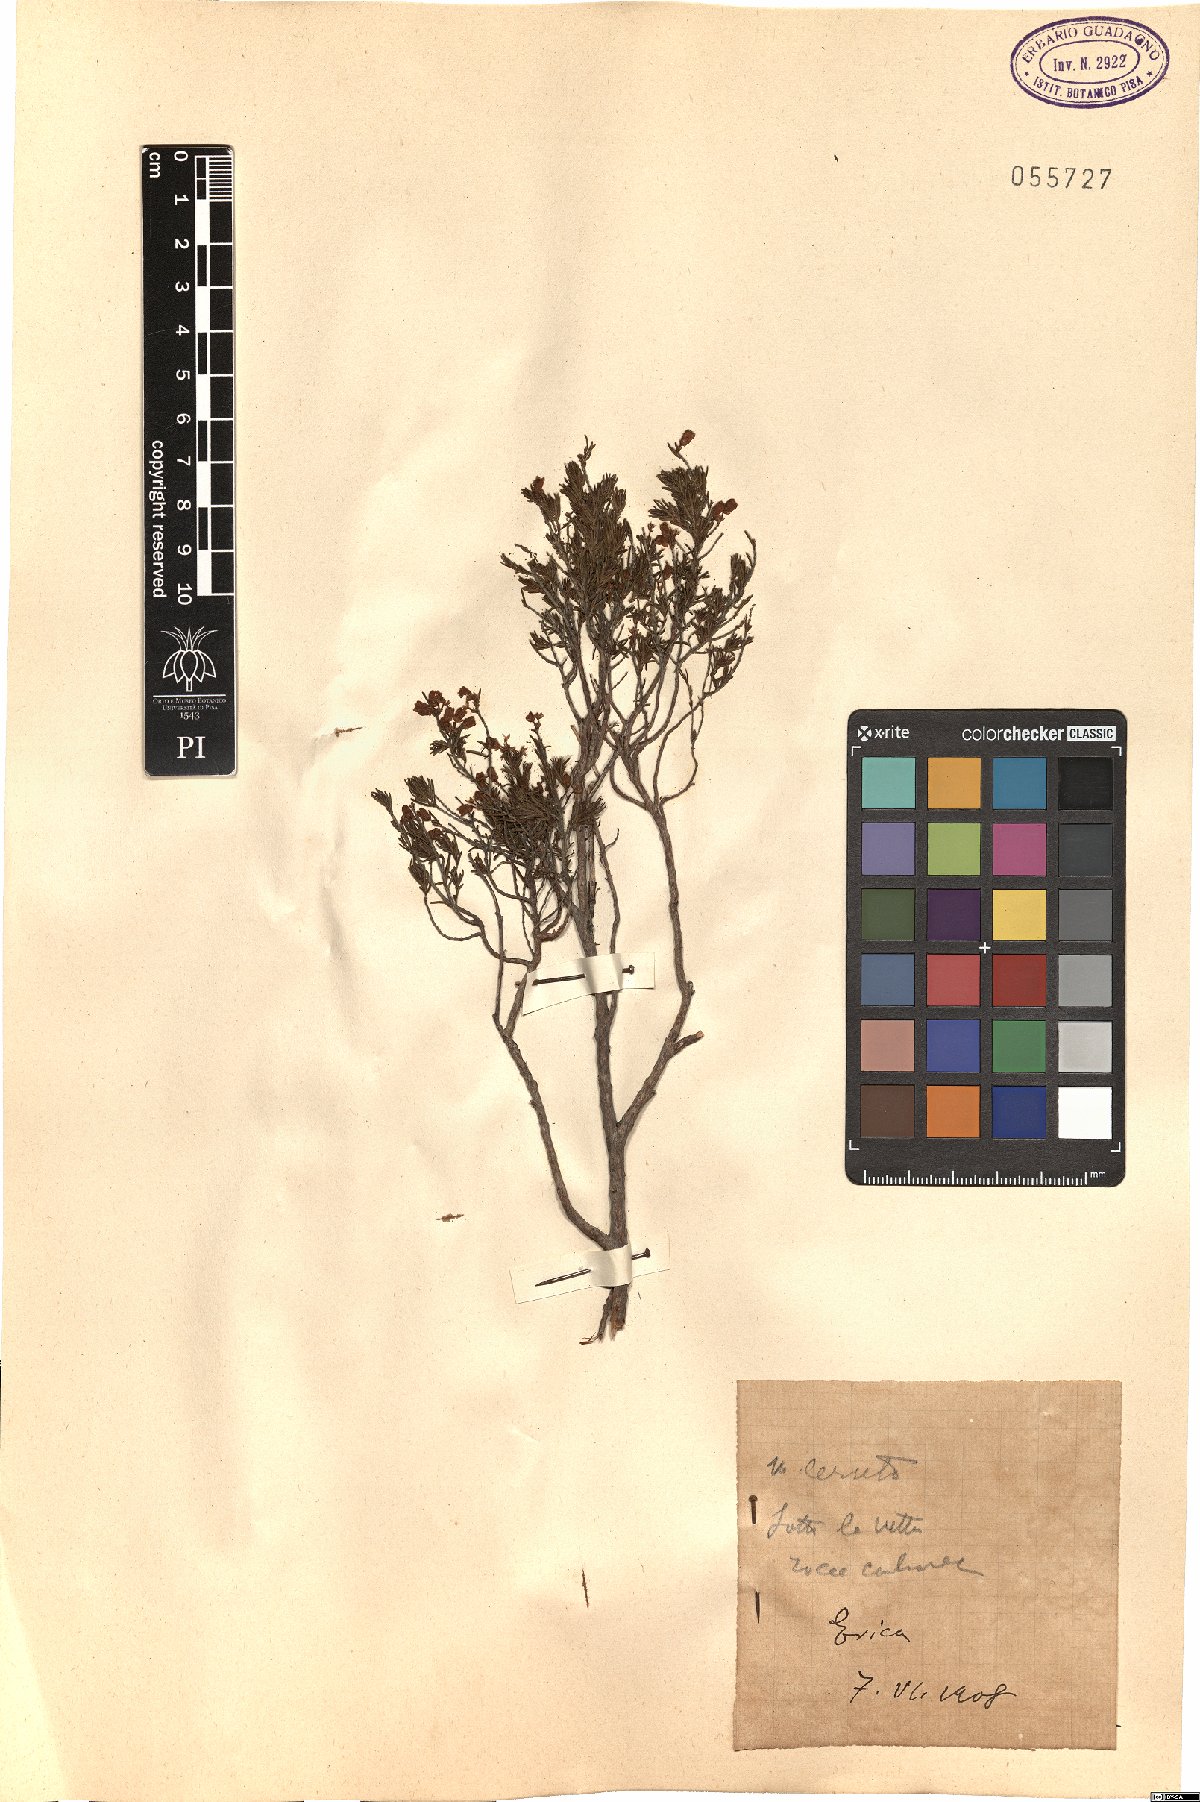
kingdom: Plantae
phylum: Tracheophyta
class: Magnoliopsida
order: Ericales
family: Ericaceae
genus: Erica
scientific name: Erica
